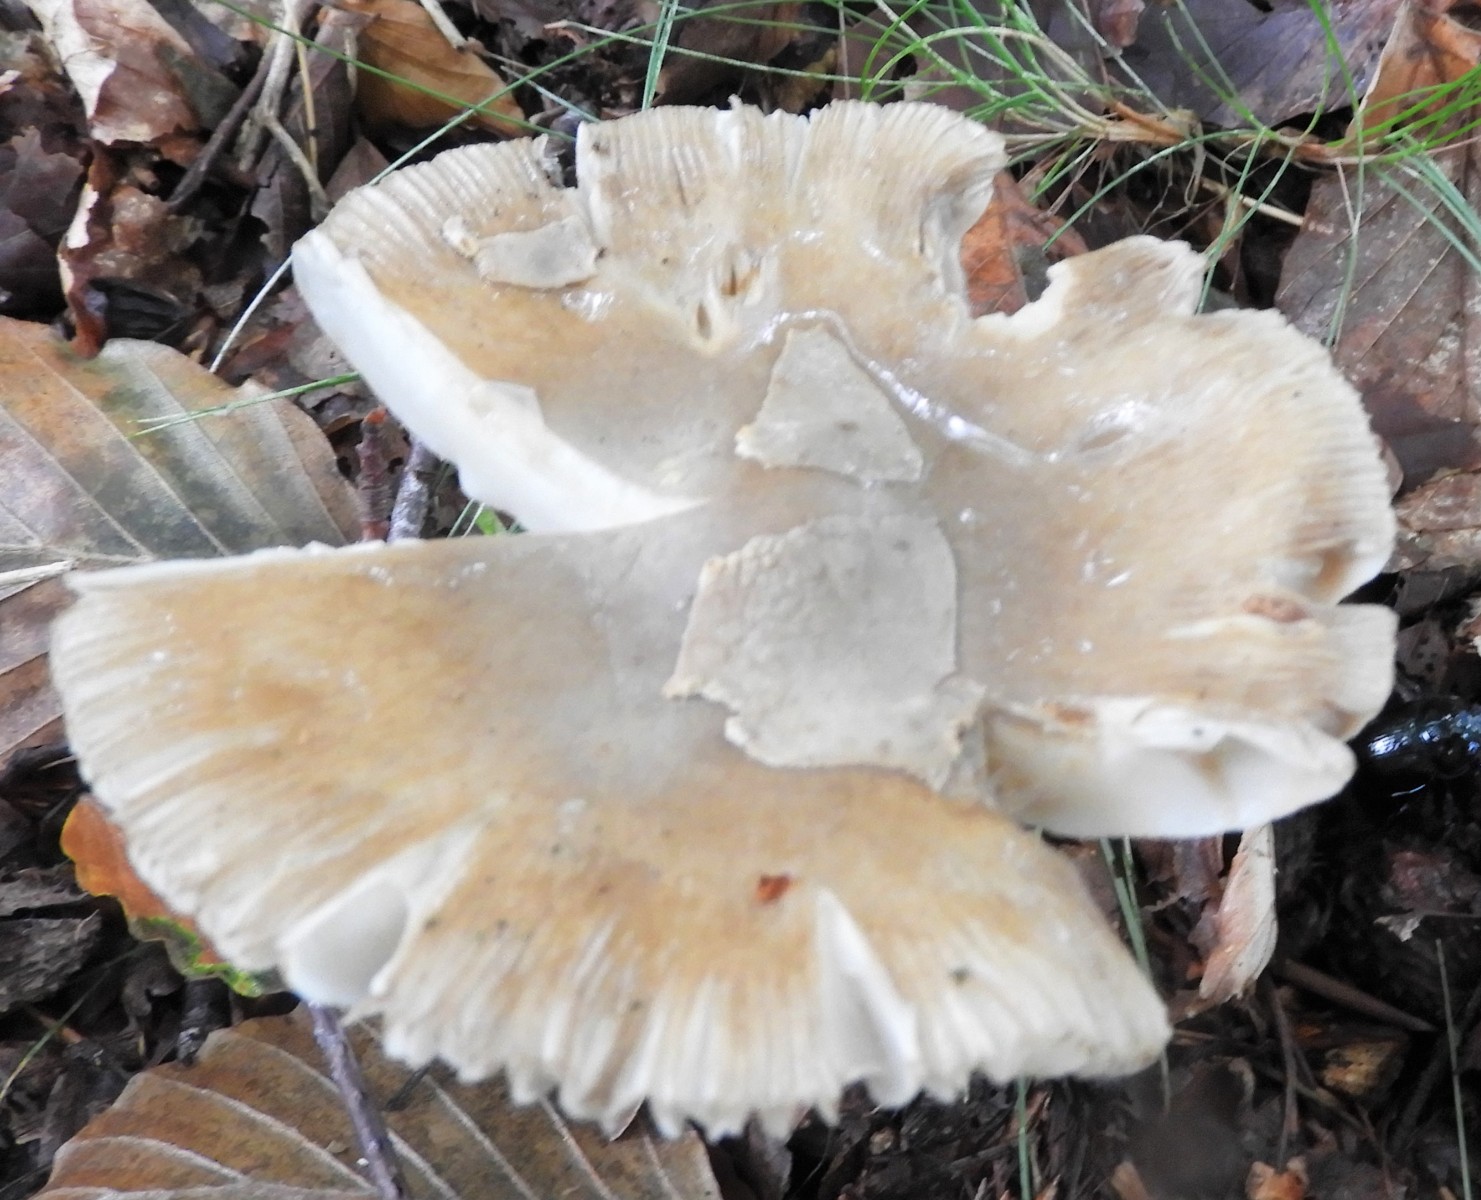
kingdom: Fungi
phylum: Basidiomycota
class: Agaricomycetes
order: Agaricales
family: Amanitaceae
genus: Amanita
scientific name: Amanita
